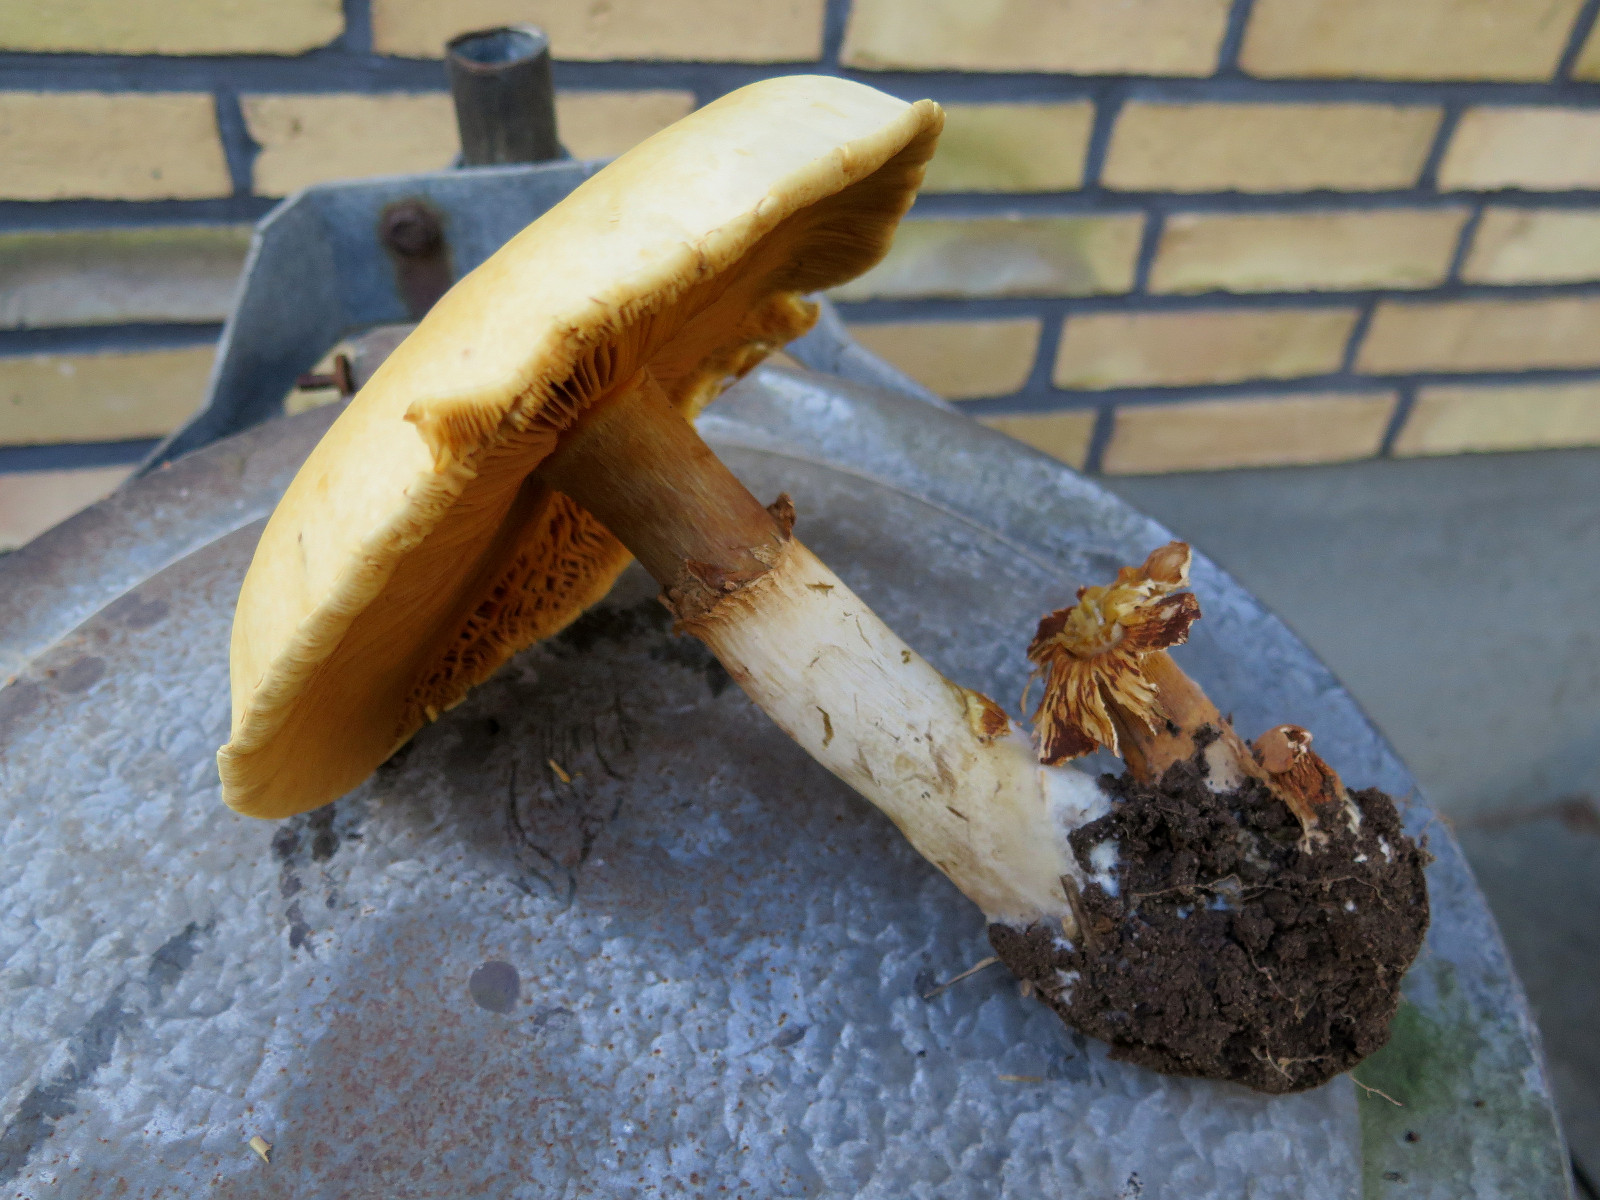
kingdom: Fungi
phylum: Basidiomycota
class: Agaricomycetes
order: Agaricales
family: Tricholomataceae
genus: Phaeolepiota
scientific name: Phaeolepiota aurea
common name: gyldenhat
